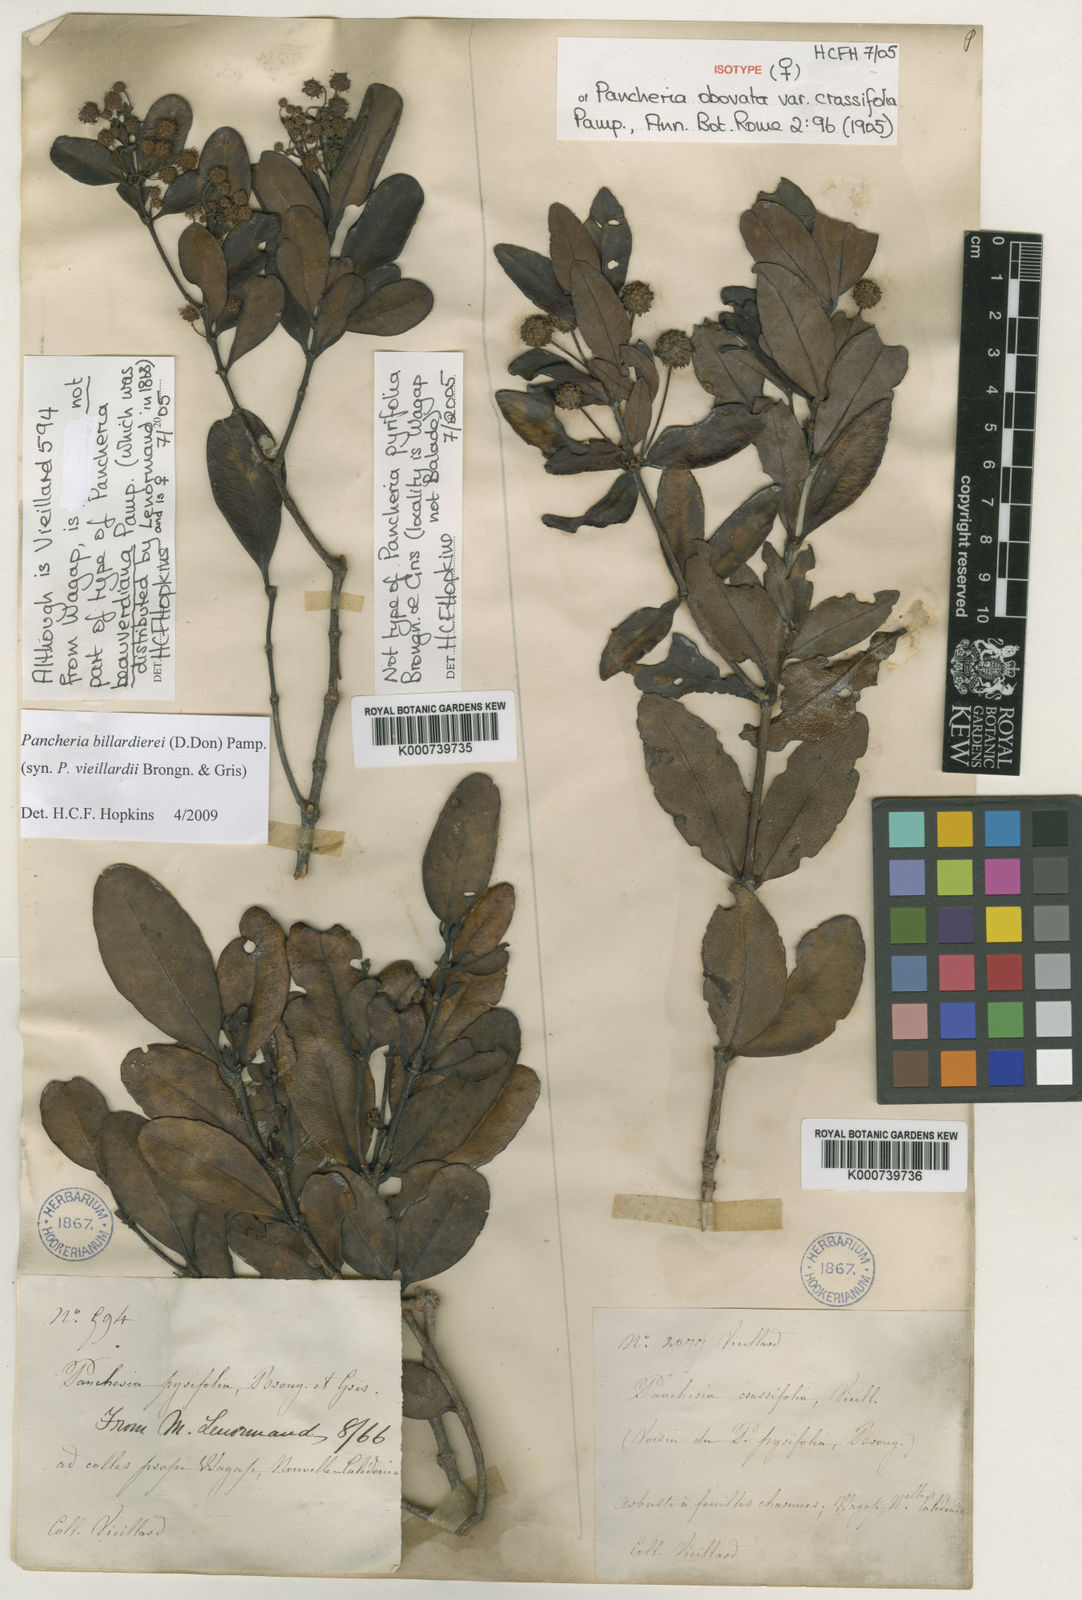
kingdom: Plantae
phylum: Tracheophyta
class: Magnoliopsida
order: Oxalidales
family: Cunoniaceae
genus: Pancheria
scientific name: Pancheria billardierei
